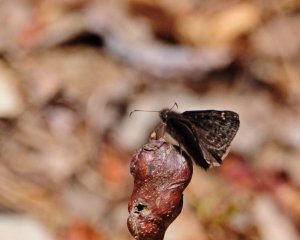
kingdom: Animalia
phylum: Arthropoda
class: Insecta
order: Lepidoptera
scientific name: Lepidoptera
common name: Butterflies
